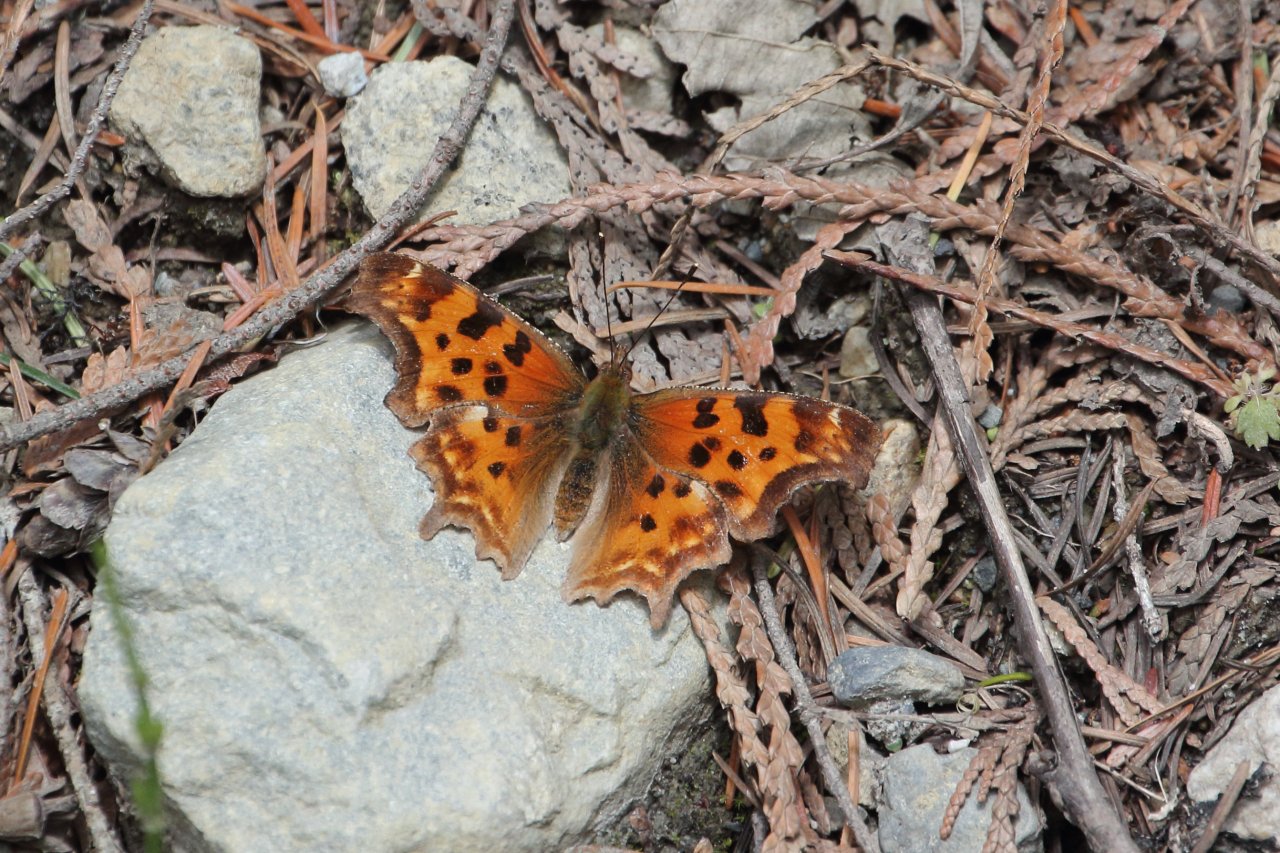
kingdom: Animalia
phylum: Arthropoda
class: Insecta
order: Lepidoptera
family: Nymphalidae
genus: Polygonia
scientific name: Polygonia satyrus
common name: Satyr Comma
